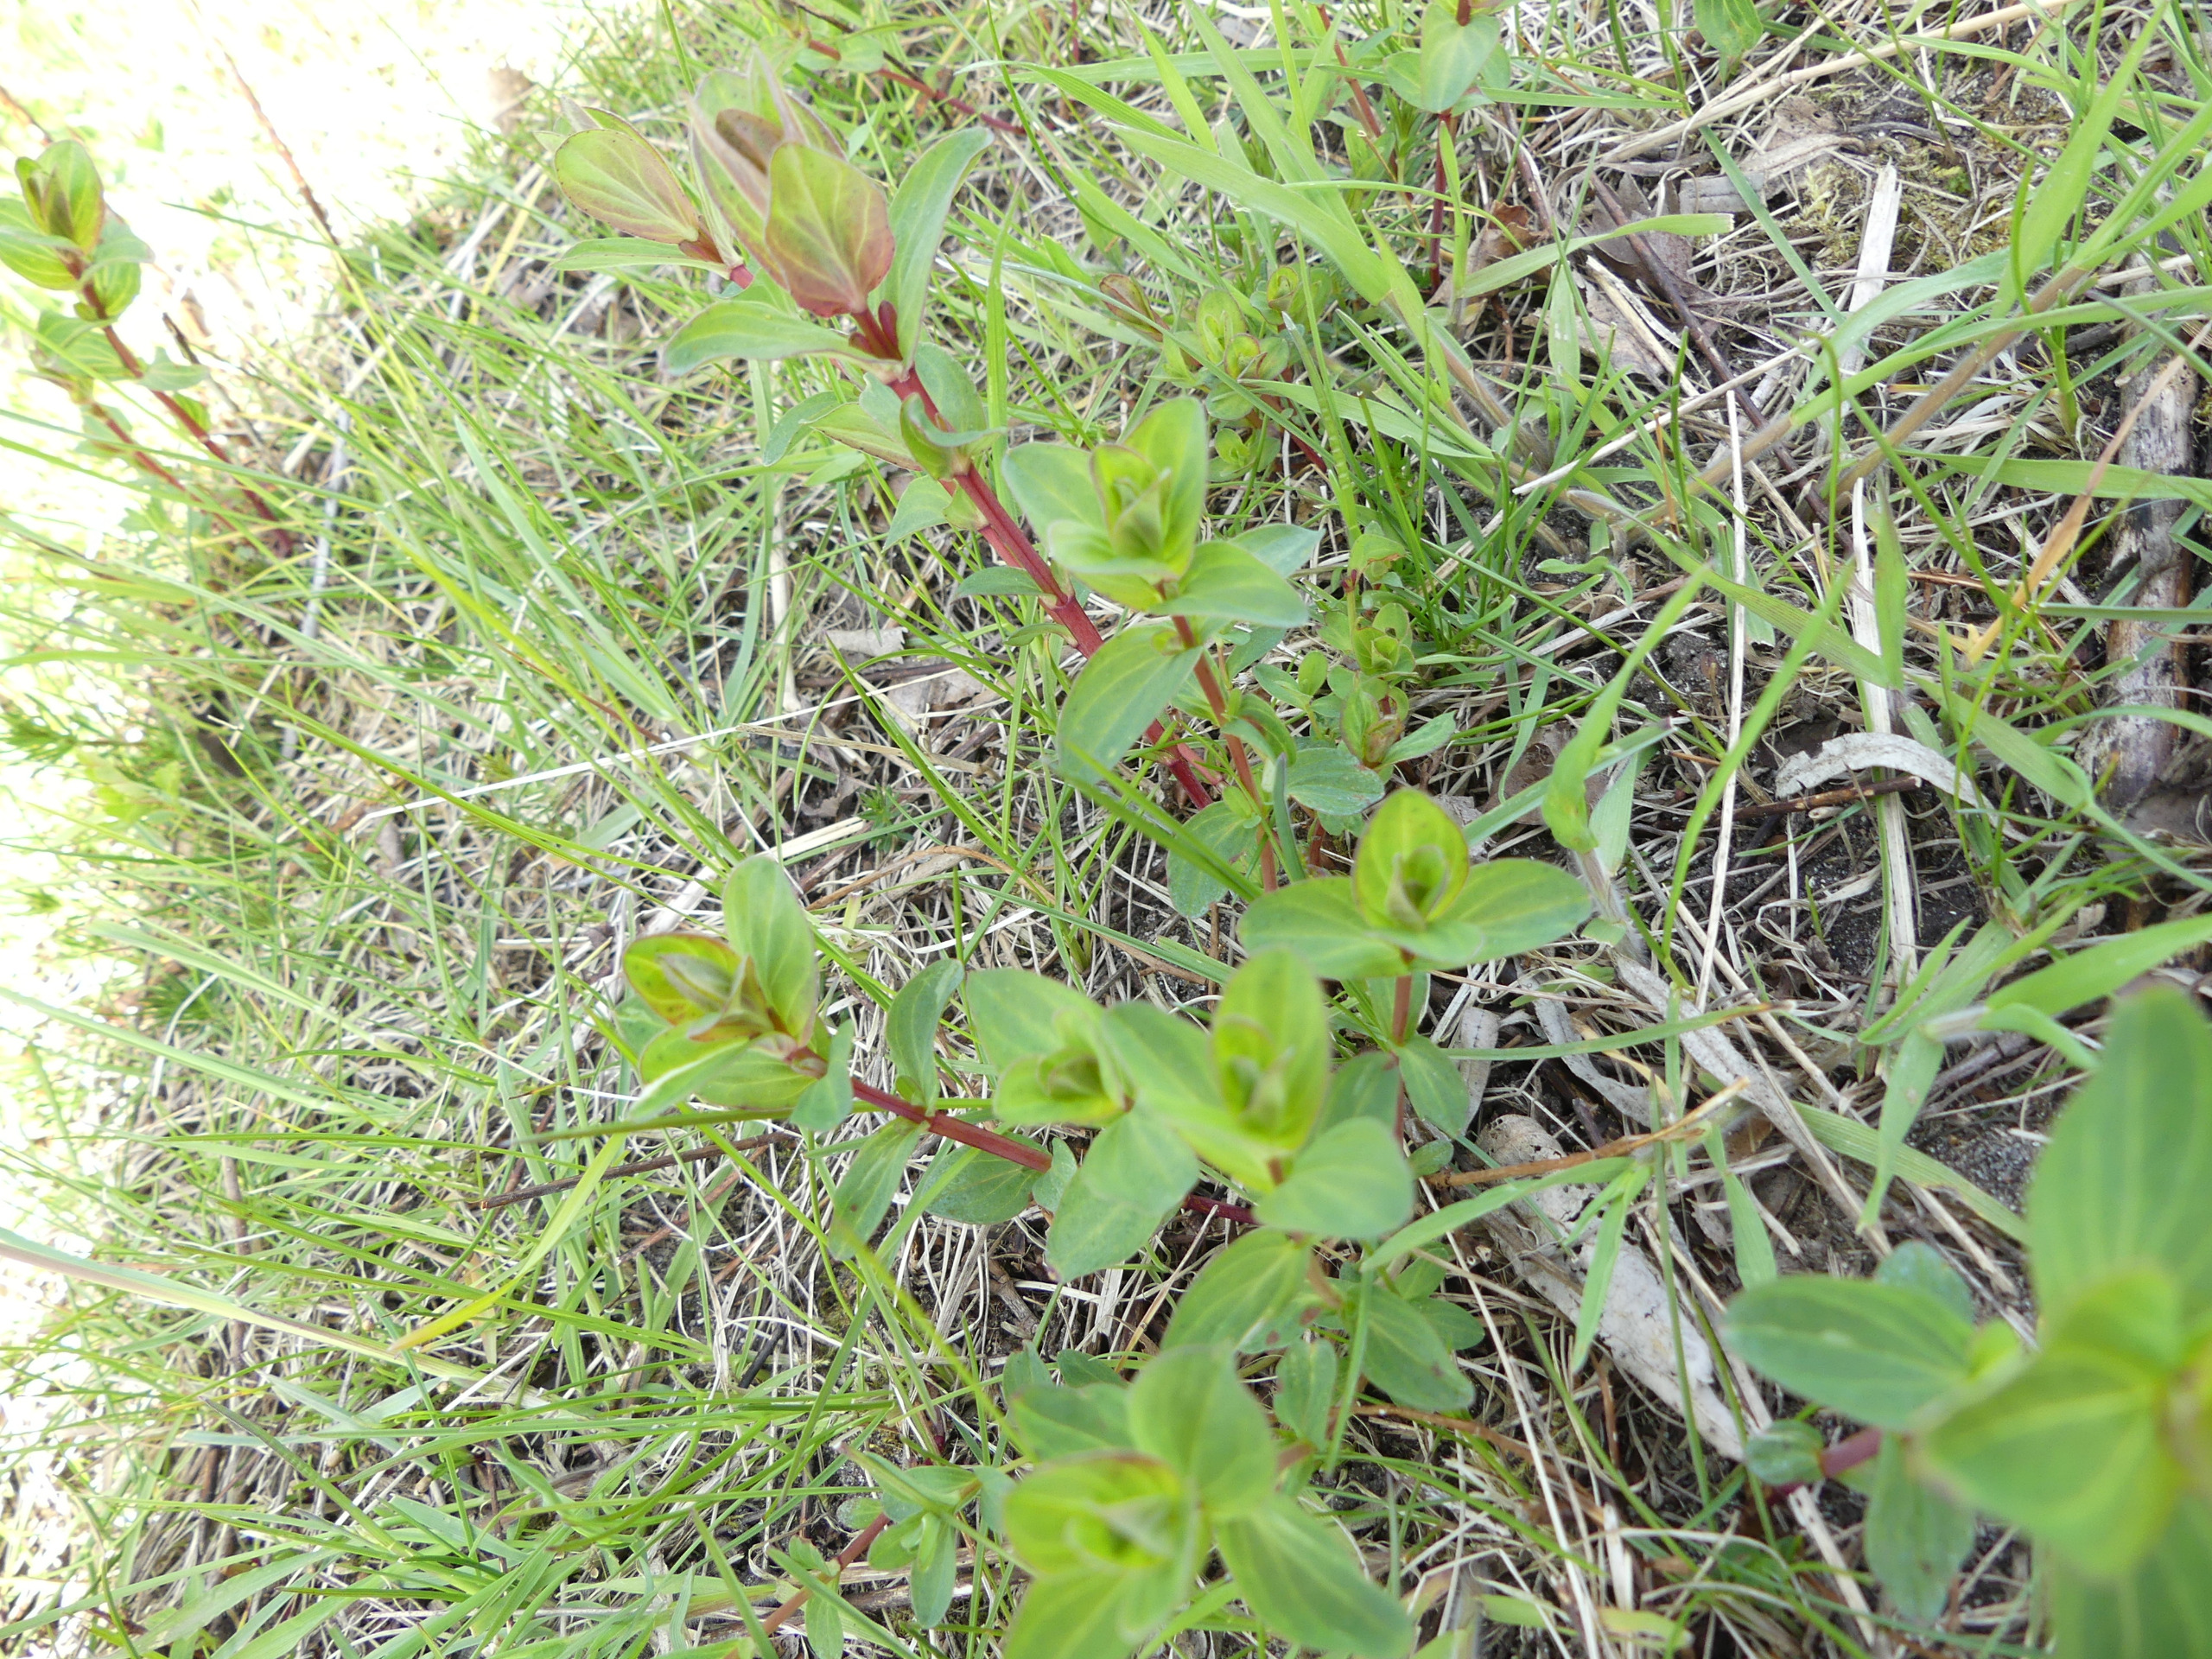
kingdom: Plantae
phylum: Tracheophyta
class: Magnoliopsida
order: Malpighiales
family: Hypericaceae
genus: Hypericum
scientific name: Hypericum perforatum
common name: Prikbladet perikon
